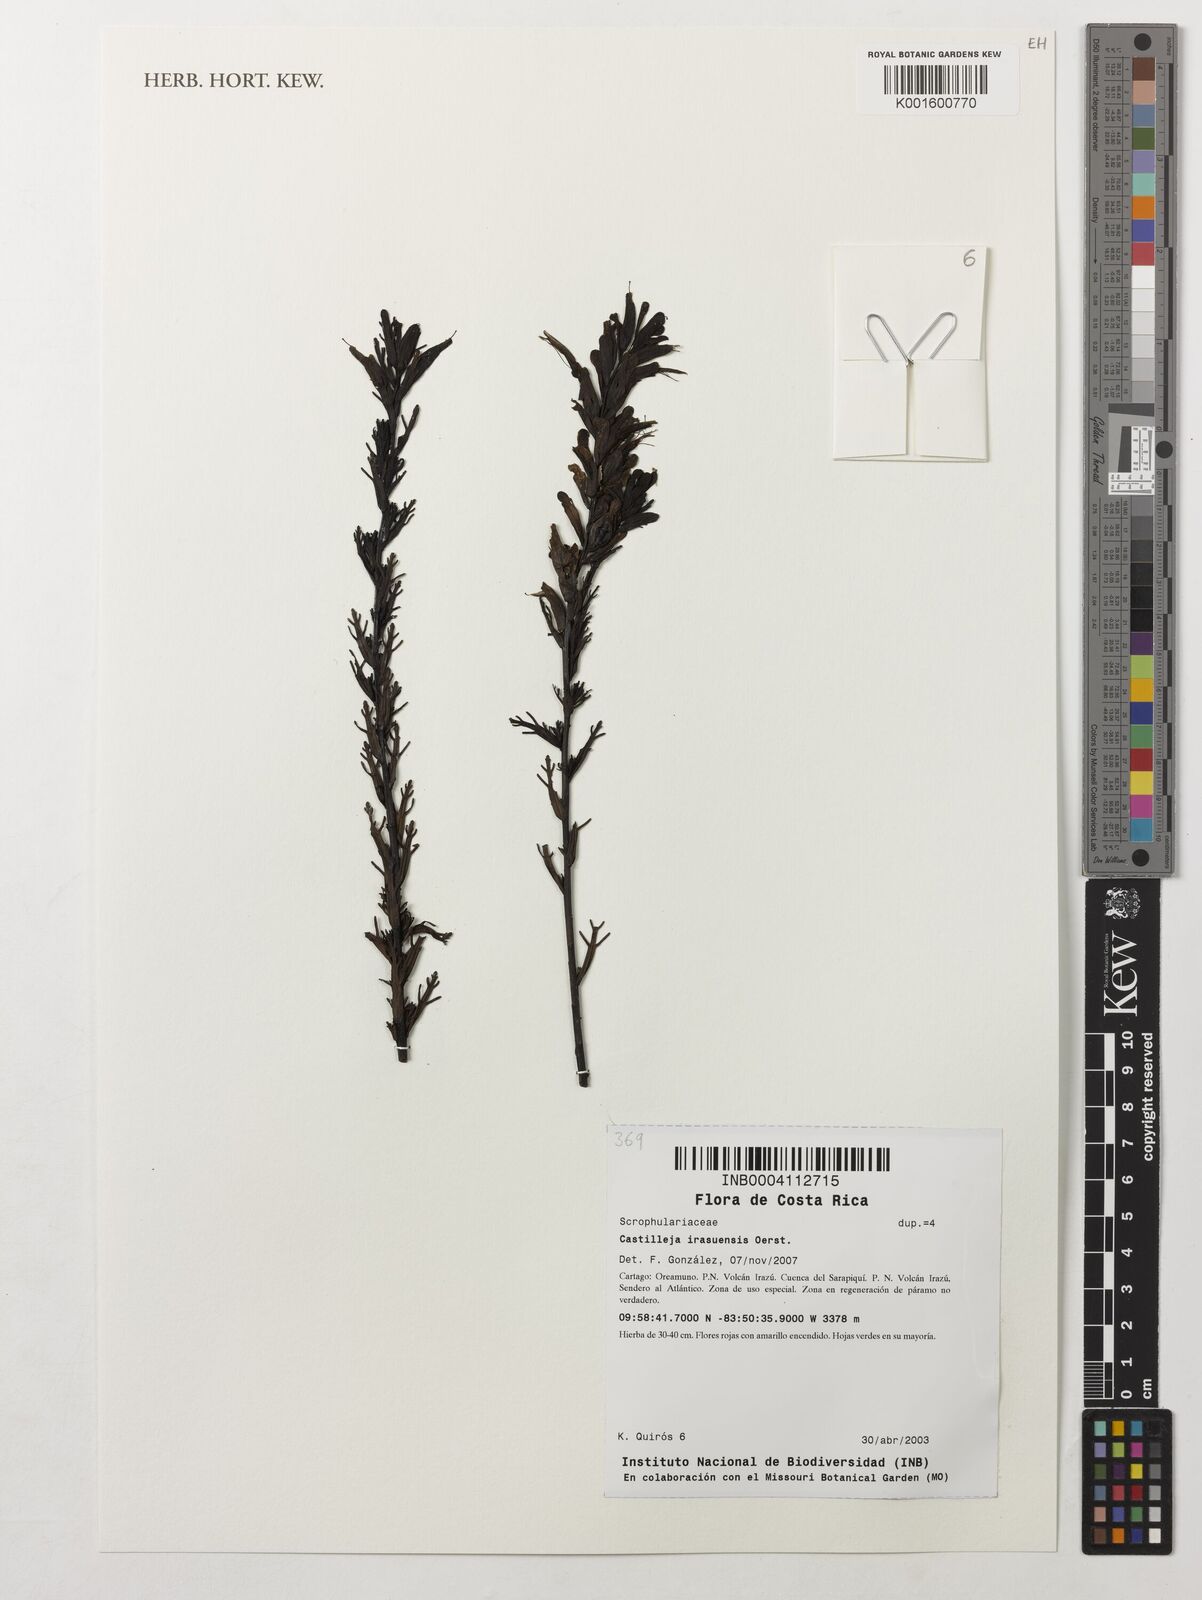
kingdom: Plantae
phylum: Tracheophyta
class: Magnoliopsida
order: Lamiales
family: Orobanchaceae
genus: Castilleja
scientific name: Castilleja irasuensis
